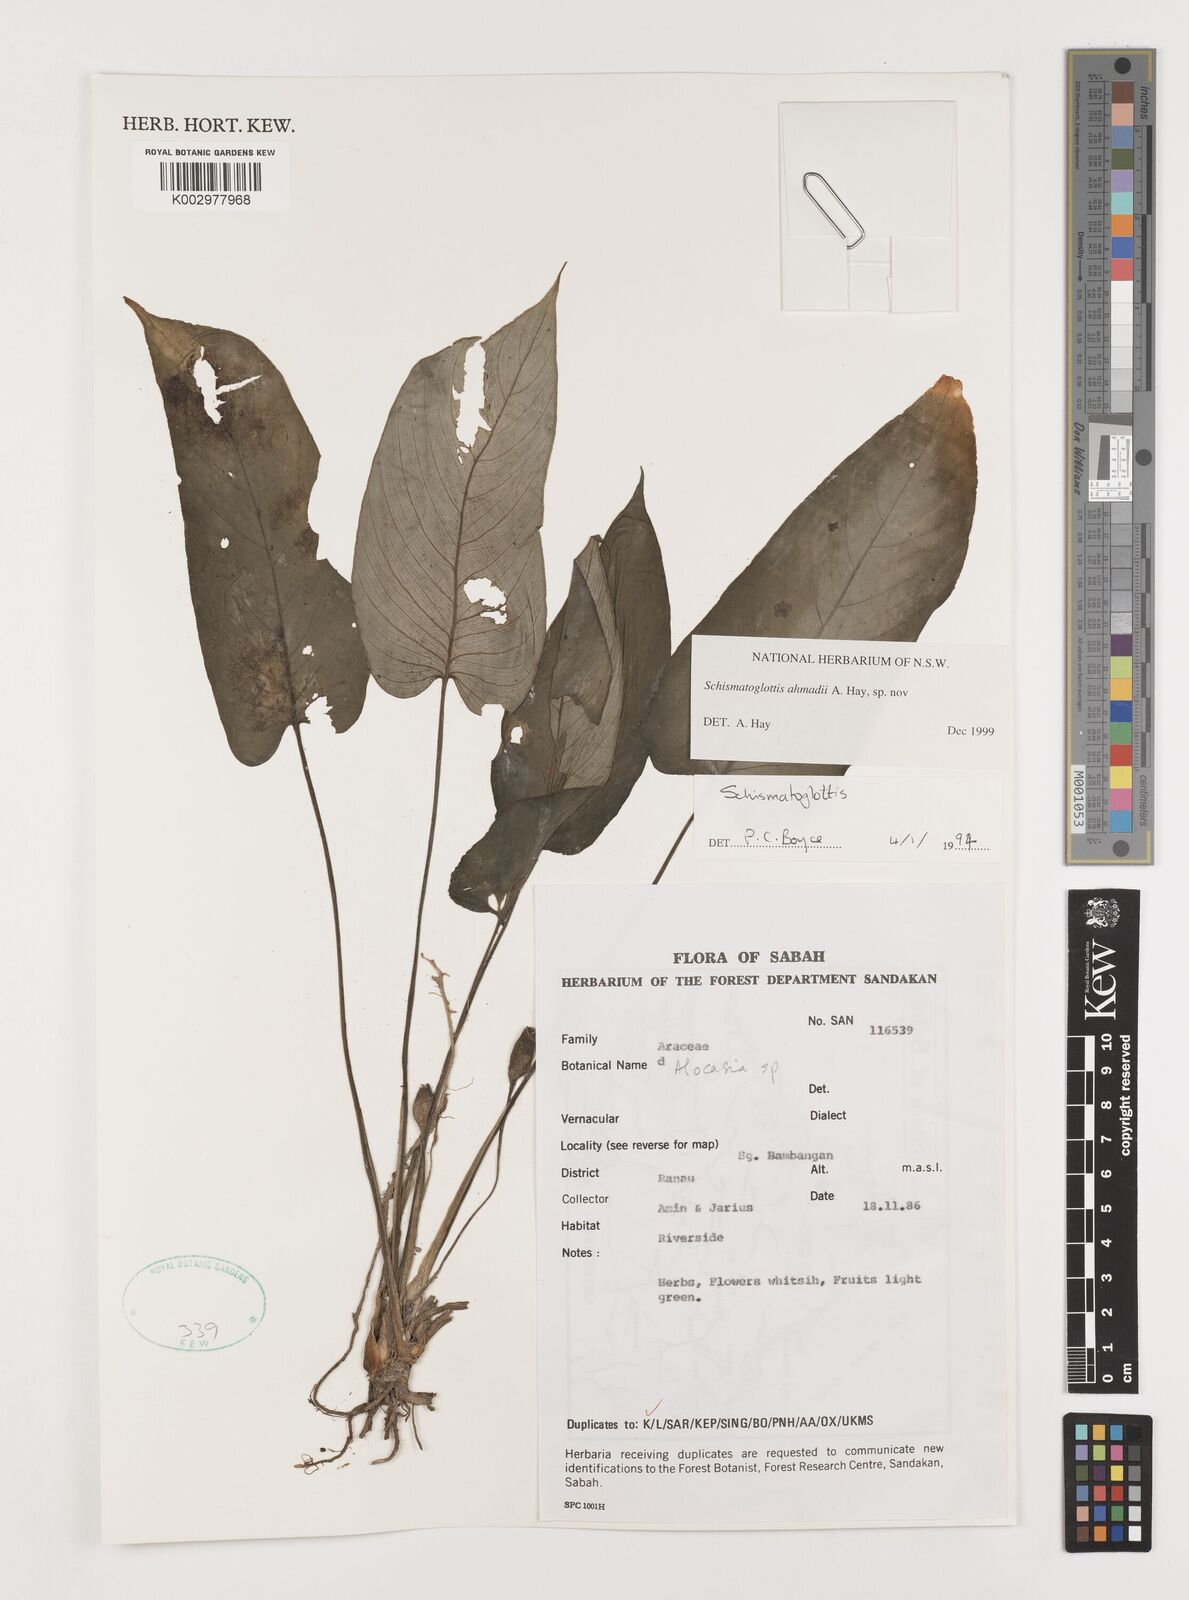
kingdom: Plantae
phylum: Tracheophyta
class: Liliopsida
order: Alismatales
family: Araceae
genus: Schismatoglottis
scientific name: Schismatoglottis ahmadii
